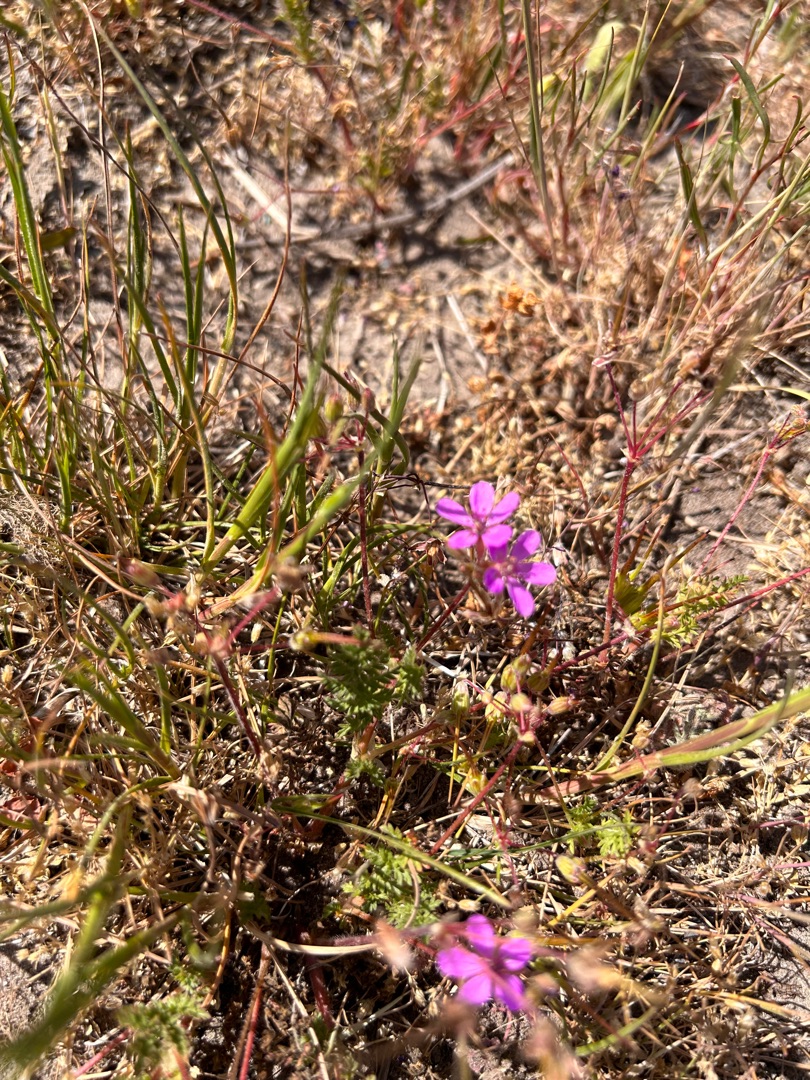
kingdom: Plantae
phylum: Tracheophyta
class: Magnoliopsida
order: Geraniales
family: Geraniaceae
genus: Erodium
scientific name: Erodium cicutarium
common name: Hejrenæb
